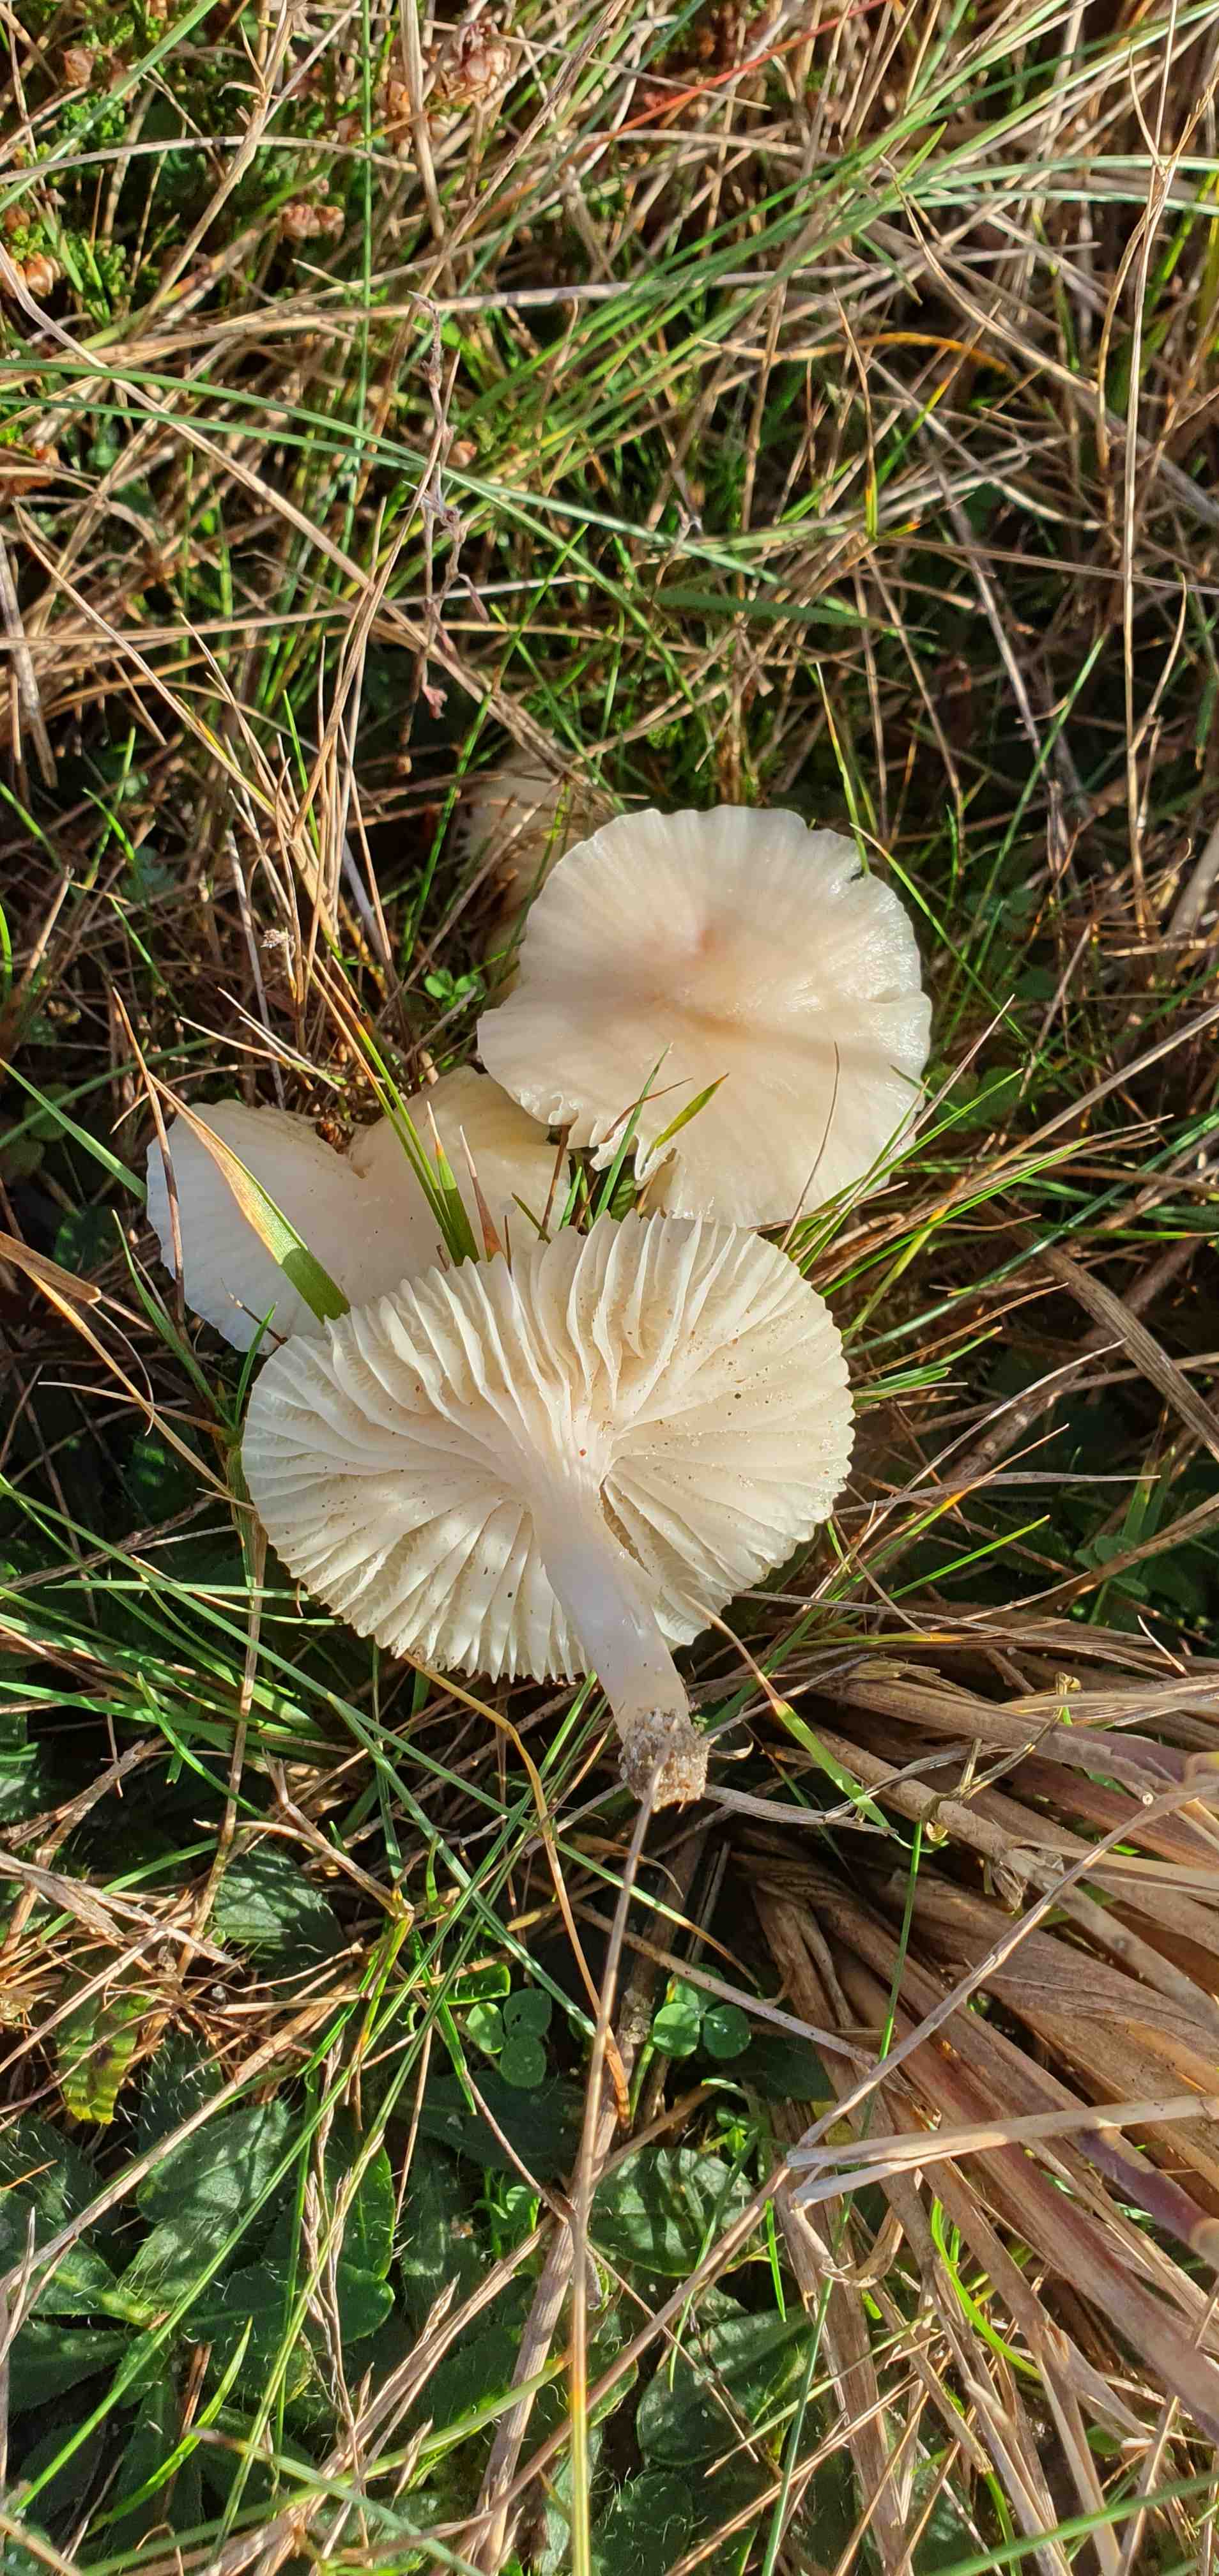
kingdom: Fungi
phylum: Basidiomycota
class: Agaricomycetes
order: Agaricales
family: Hygrophoraceae
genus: Cuphophyllus
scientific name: Cuphophyllus virgineus
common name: snehvid vokshat
